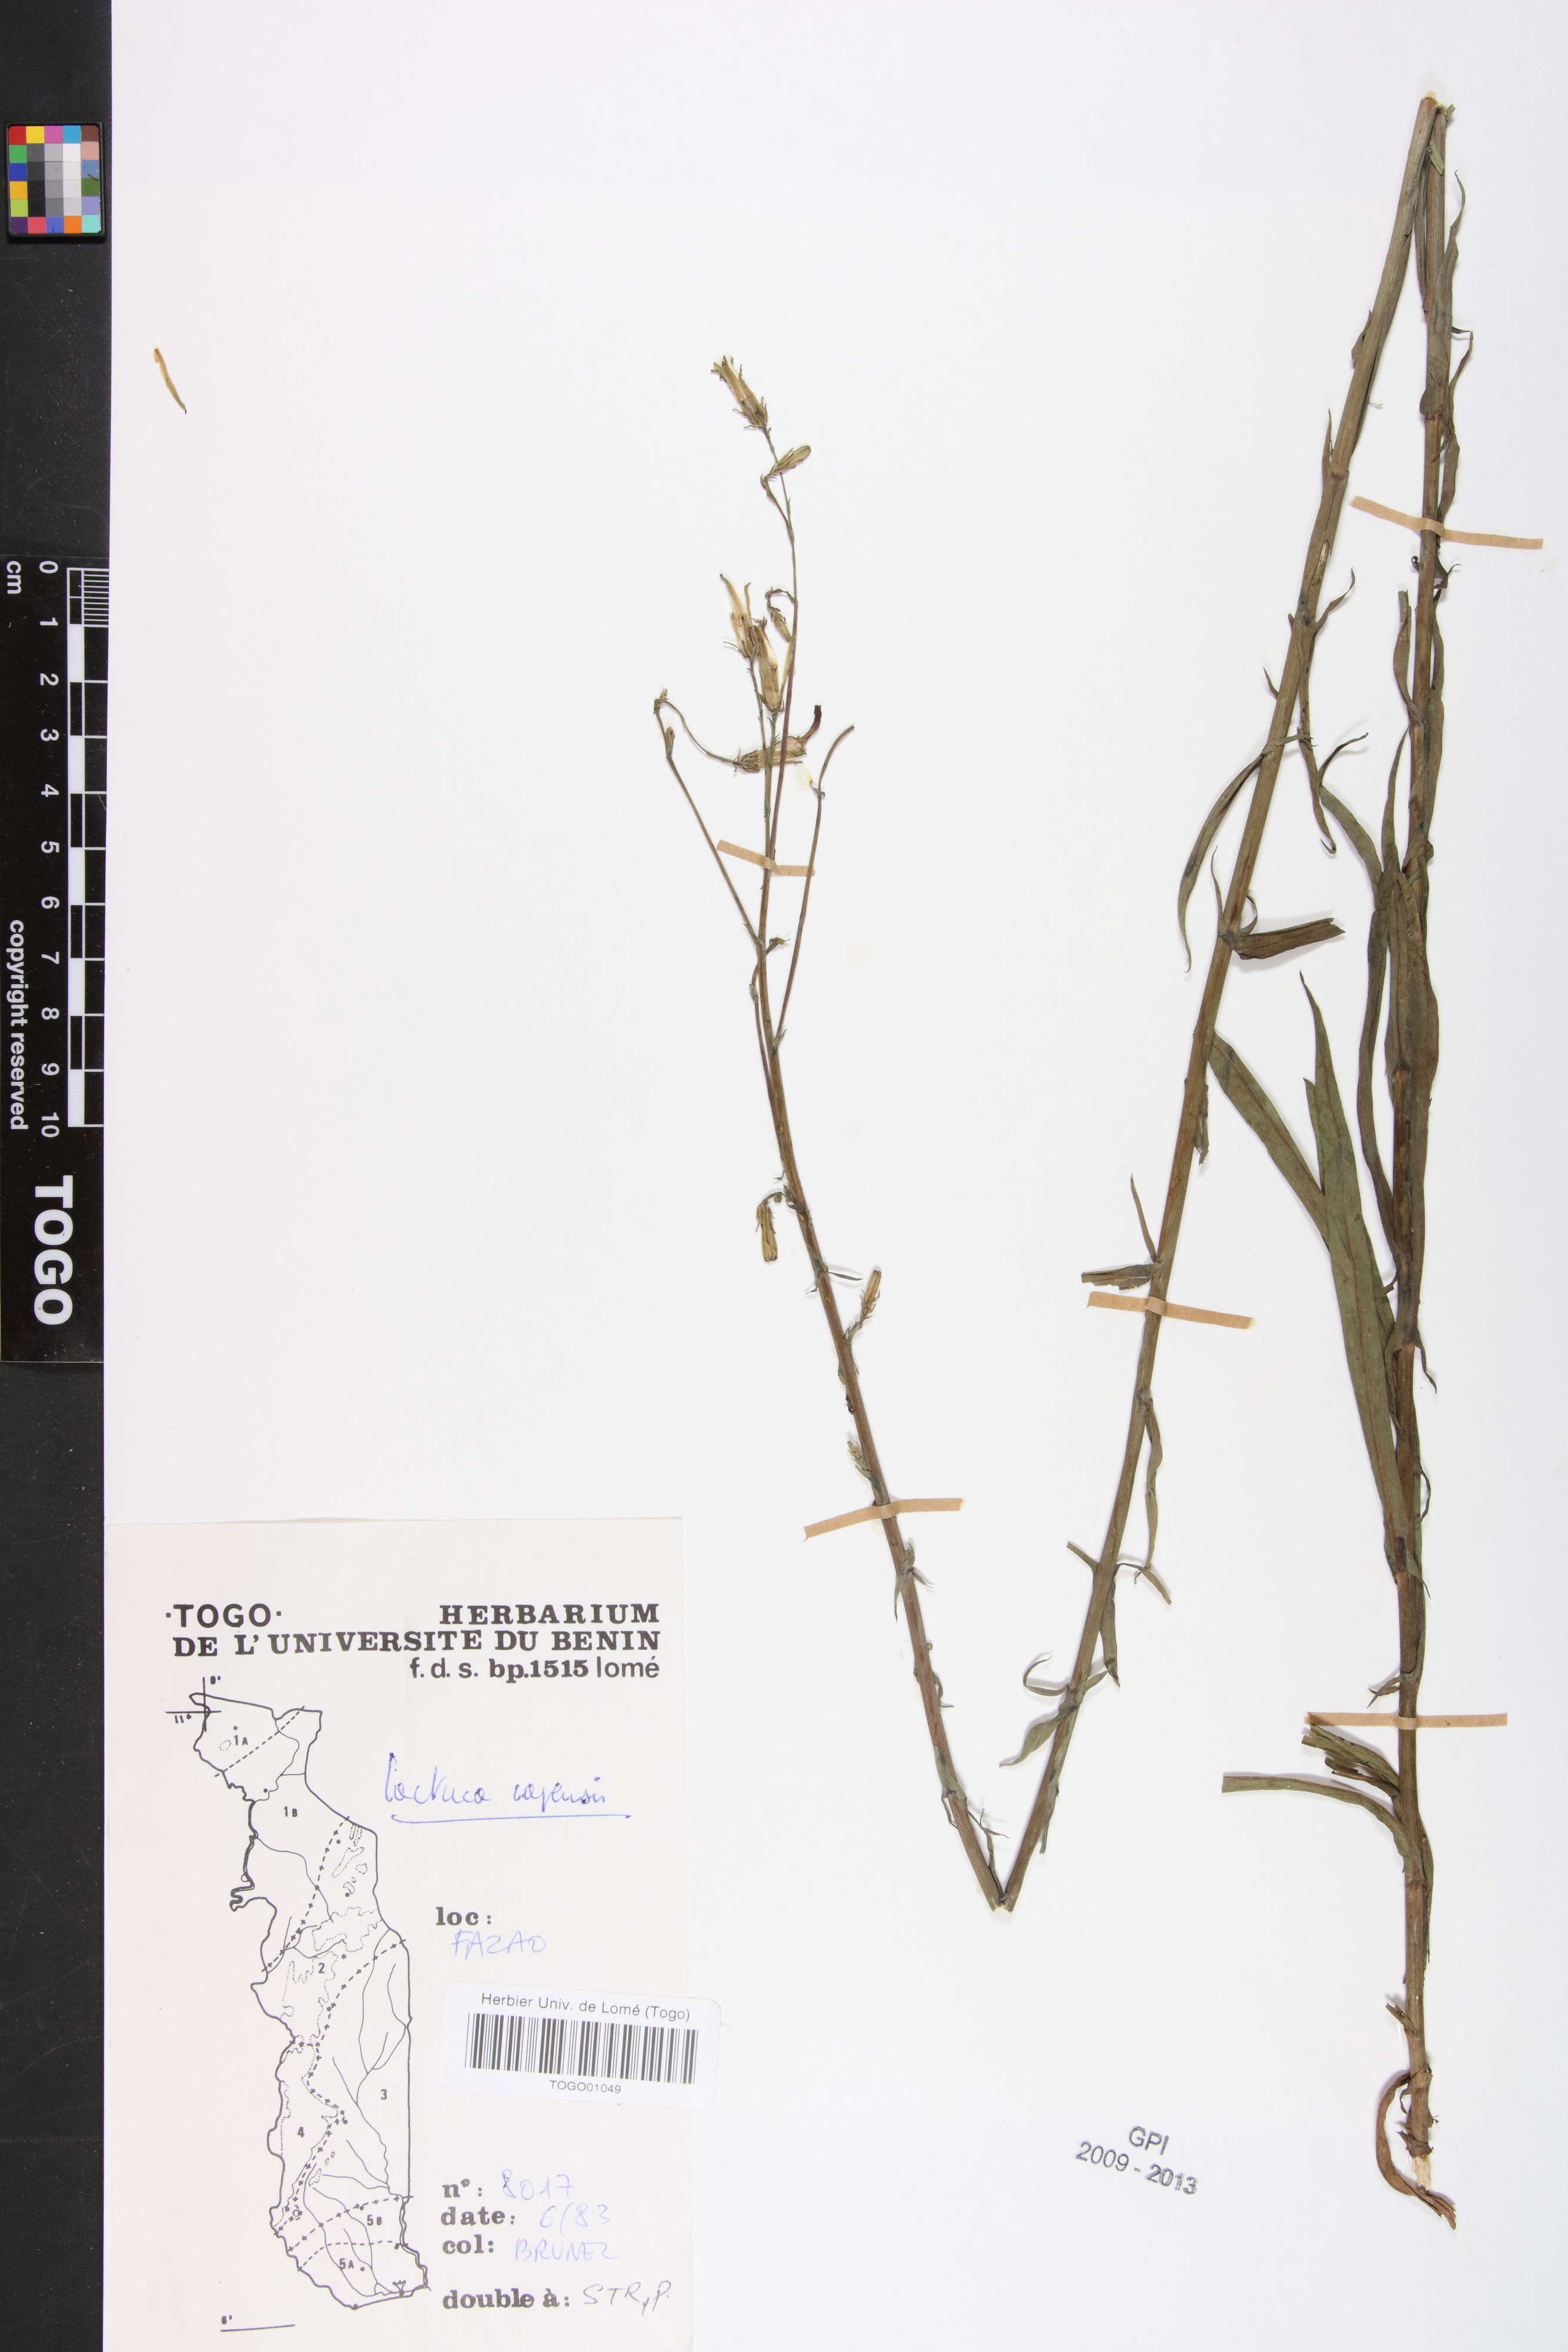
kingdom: Plantae
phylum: Tracheophyta
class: Magnoliopsida
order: Asterales
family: Asteraceae
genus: Lactuca
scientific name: Lactuca inermis
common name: Wild lettuce
